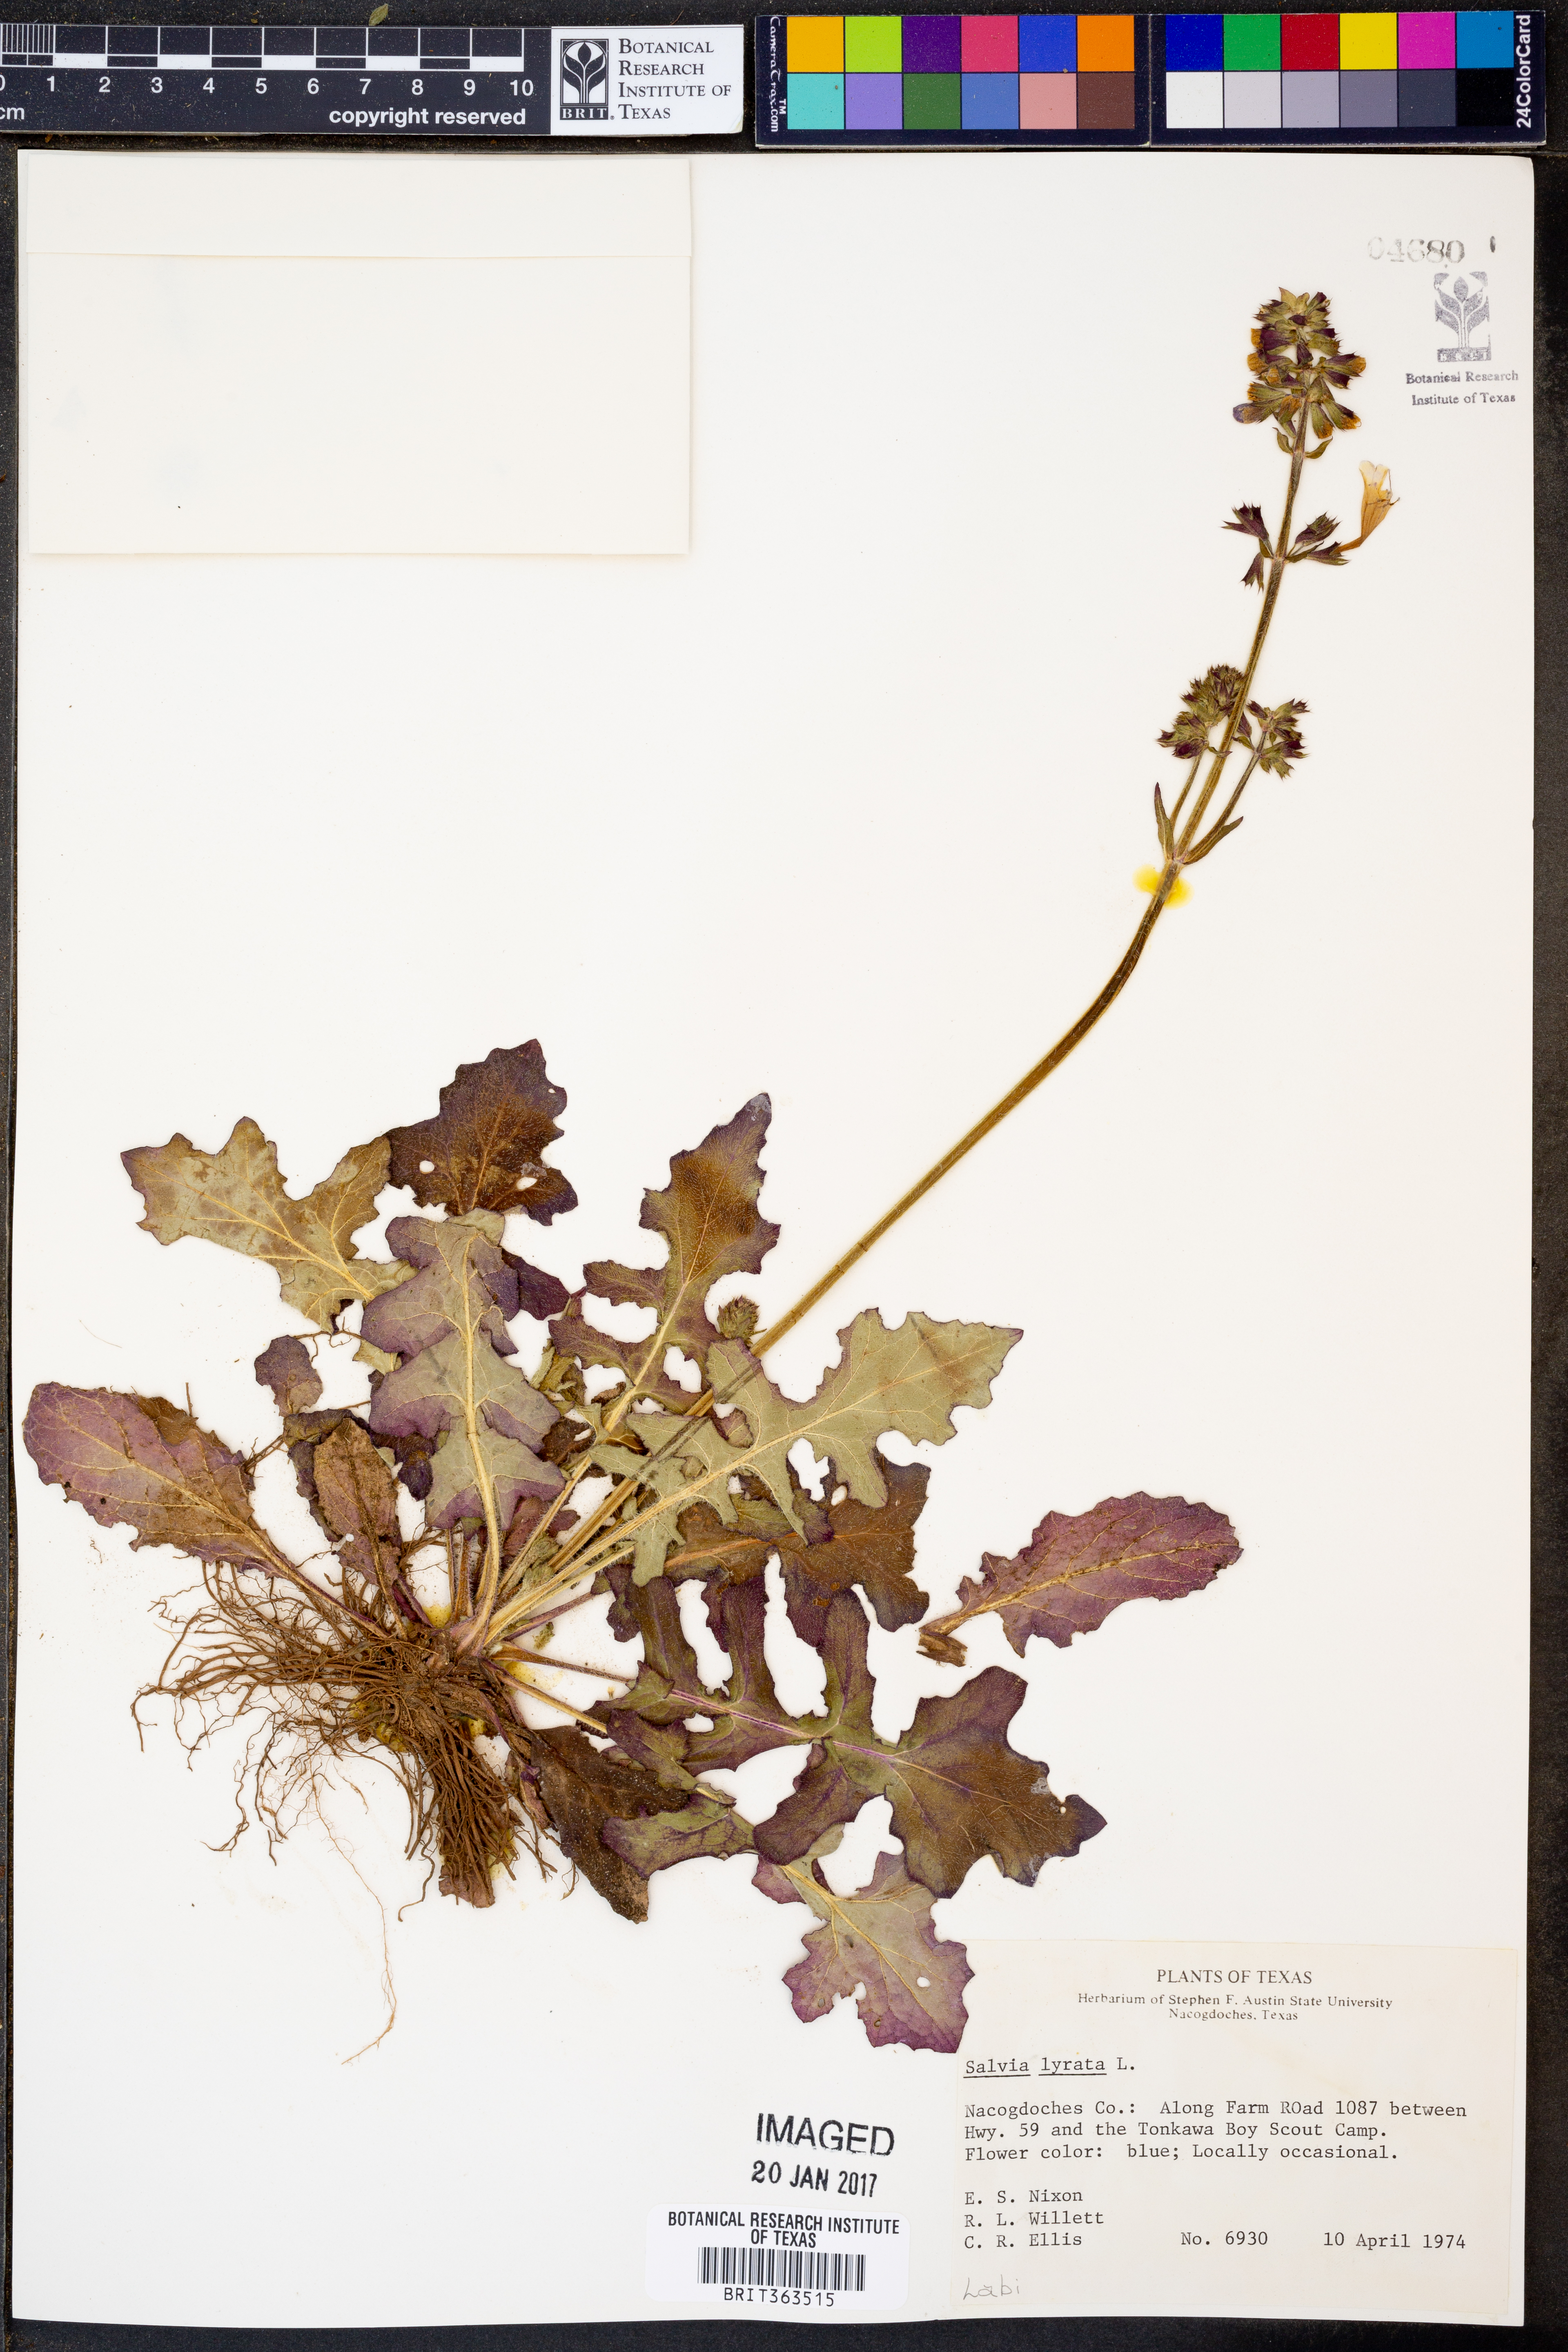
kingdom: Plantae
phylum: Tracheophyta
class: Magnoliopsida
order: Lamiales
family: Lamiaceae
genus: Salvia
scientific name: Salvia lyrata
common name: Cancerweed
